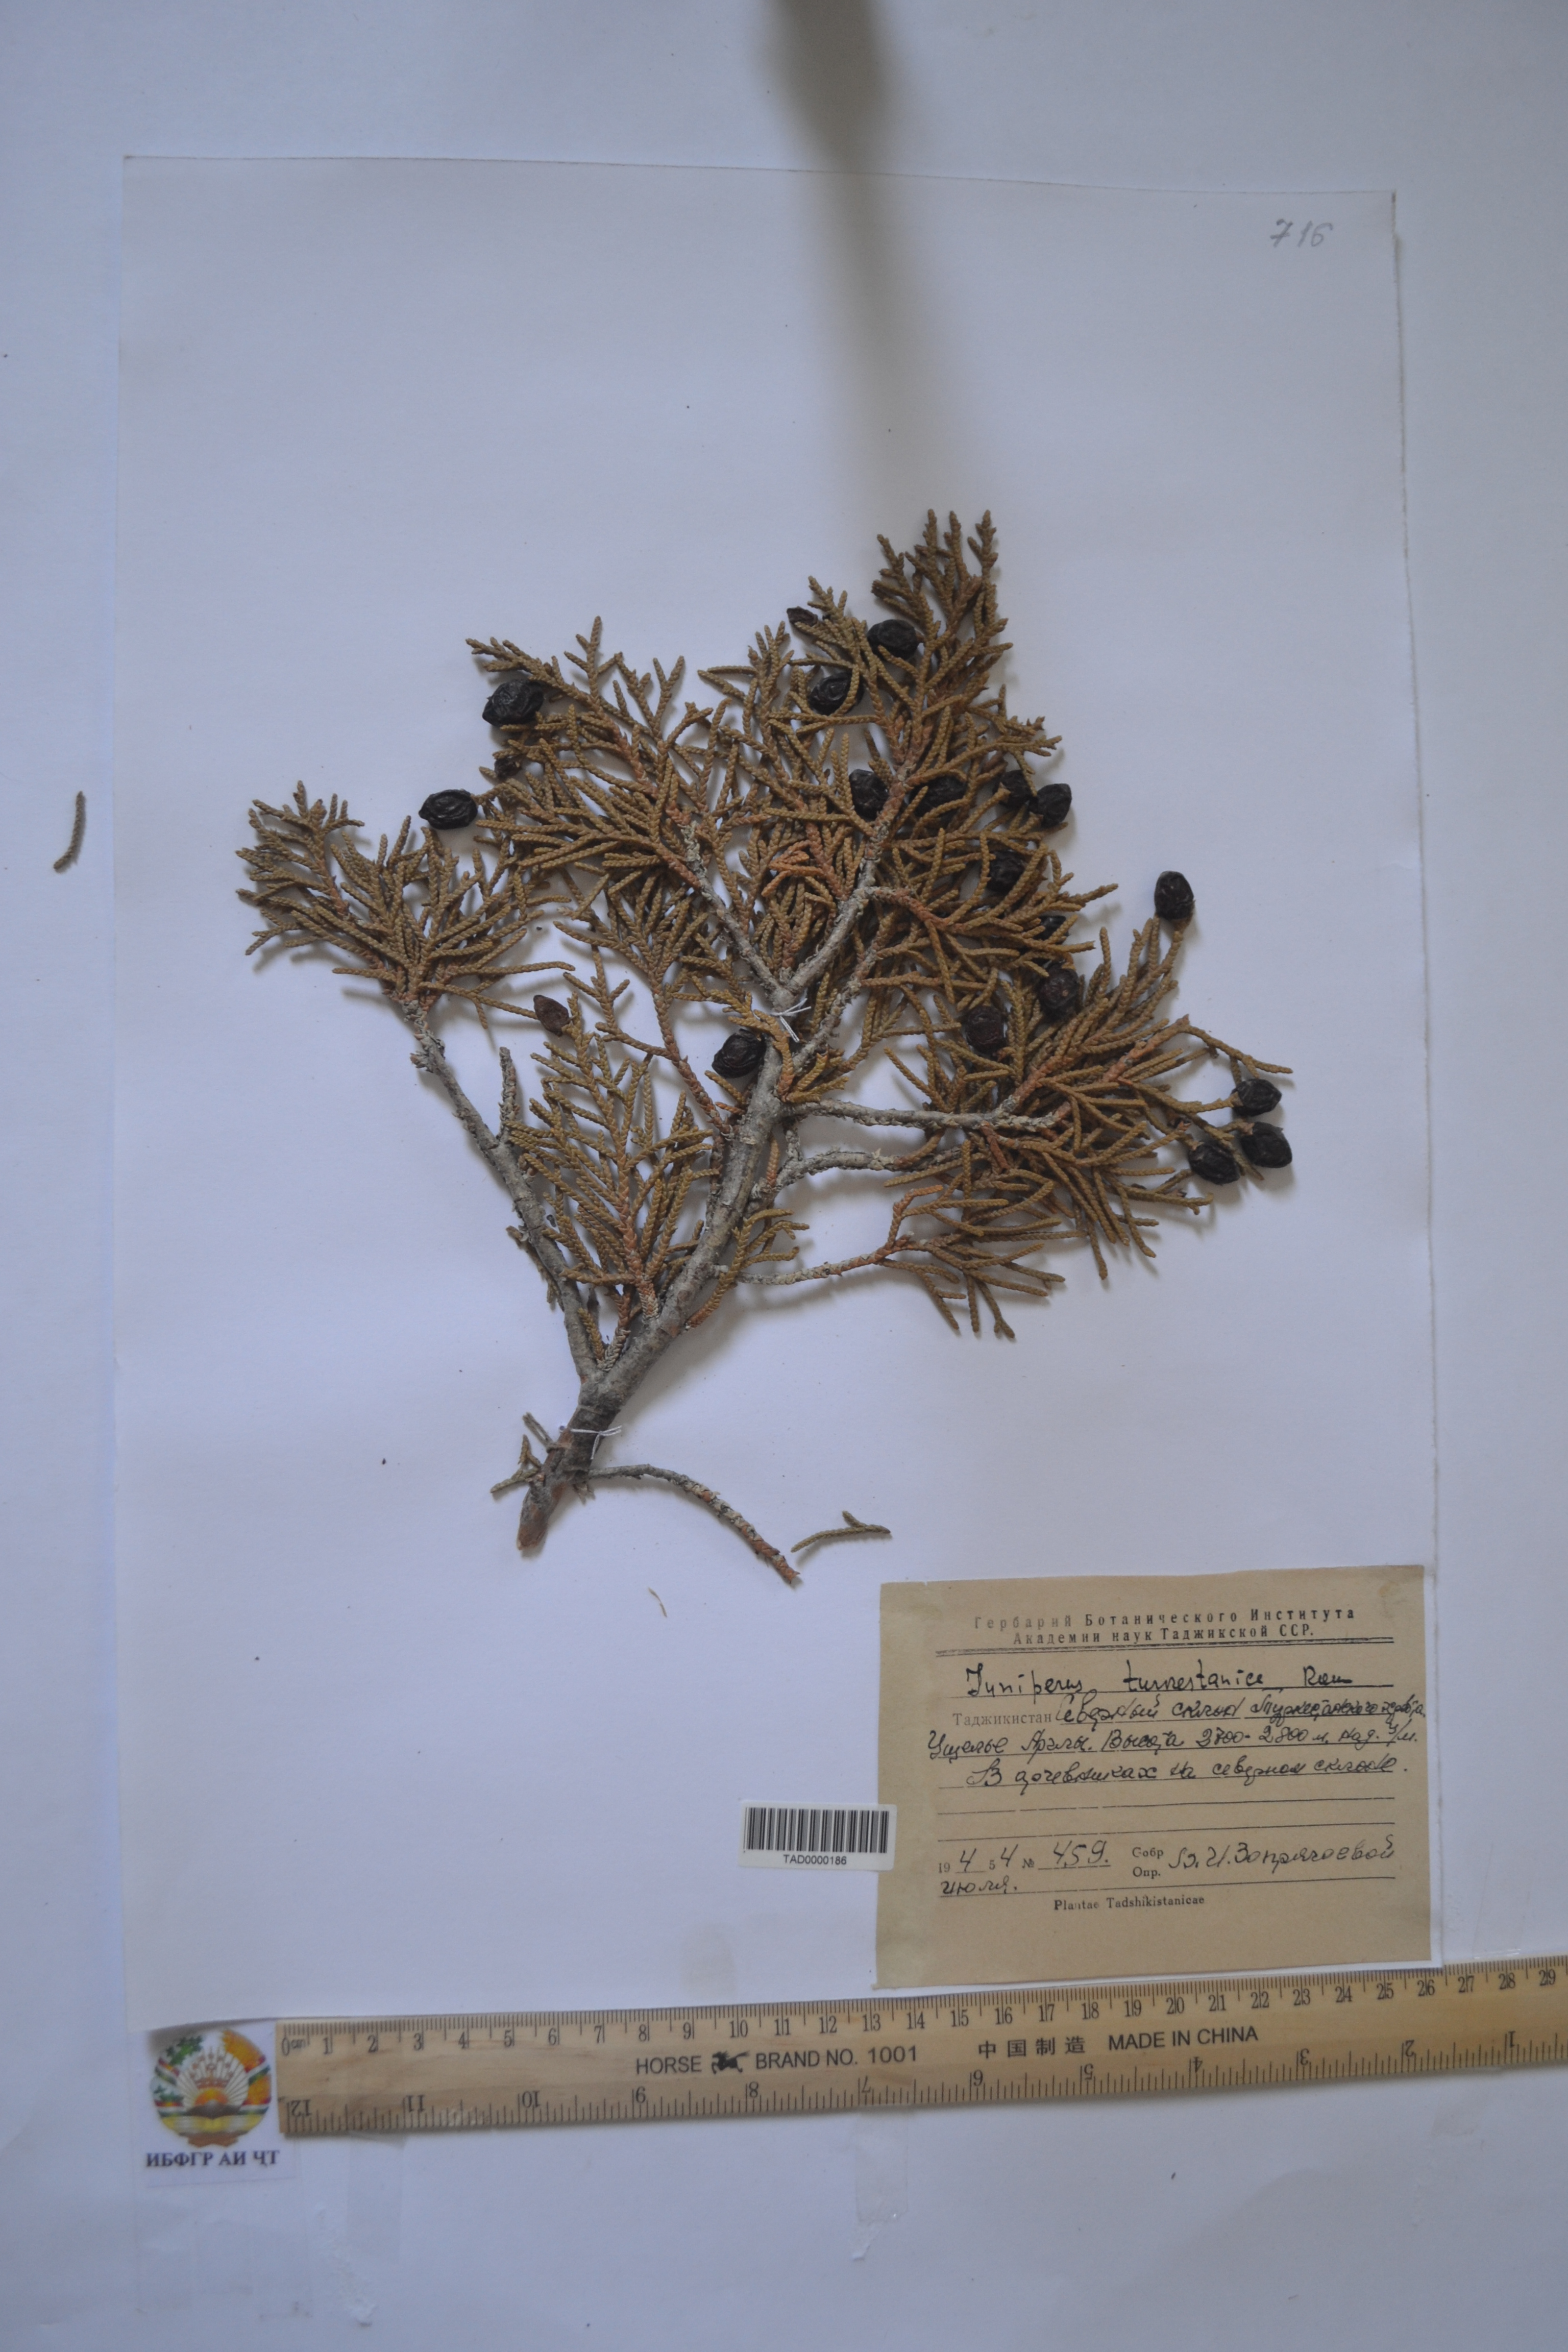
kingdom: Plantae
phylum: Tracheophyta
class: Pinopsida
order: Pinales
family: Cupressaceae
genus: Juniperus
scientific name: Juniperus pseudosabina
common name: Turkestan juniper
